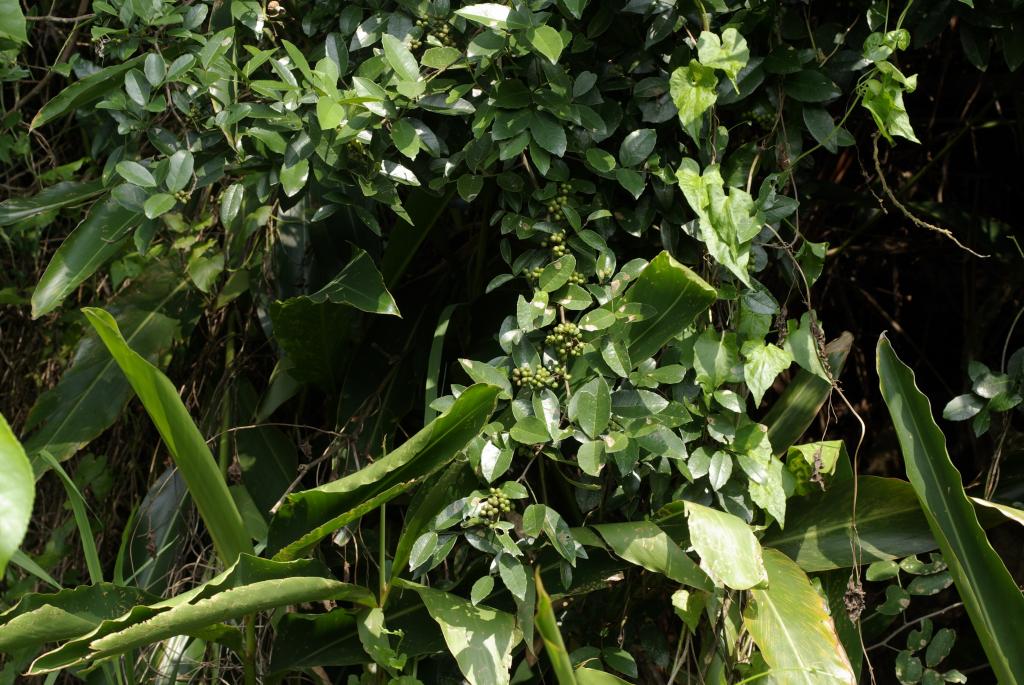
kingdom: Plantae
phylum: Tracheophyta
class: Magnoliopsida
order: Sapindales
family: Rutaceae
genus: Zanthoxylum
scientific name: Zanthoxylum nitidum
